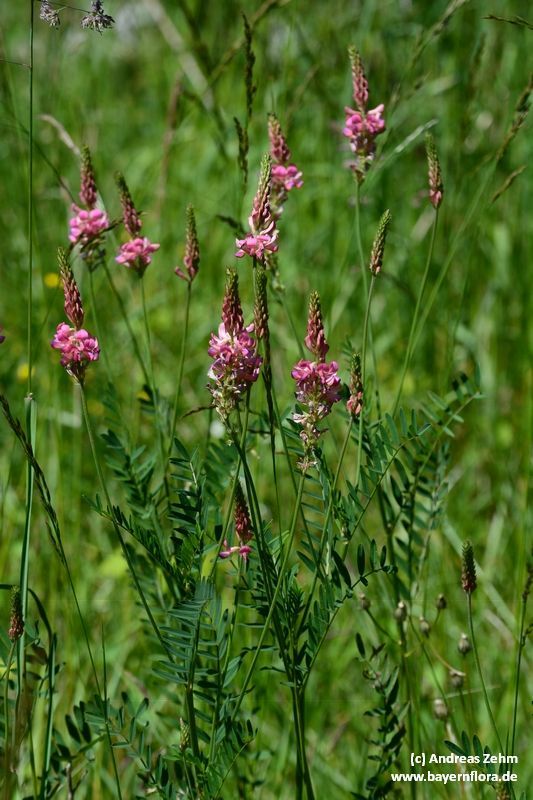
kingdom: Plantae
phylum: Tracheophyta
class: Magnoliopsida
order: Fabales
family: Fabaceae
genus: Onobrychis
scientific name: Onobrychis viciifolia
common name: Sainfoin
